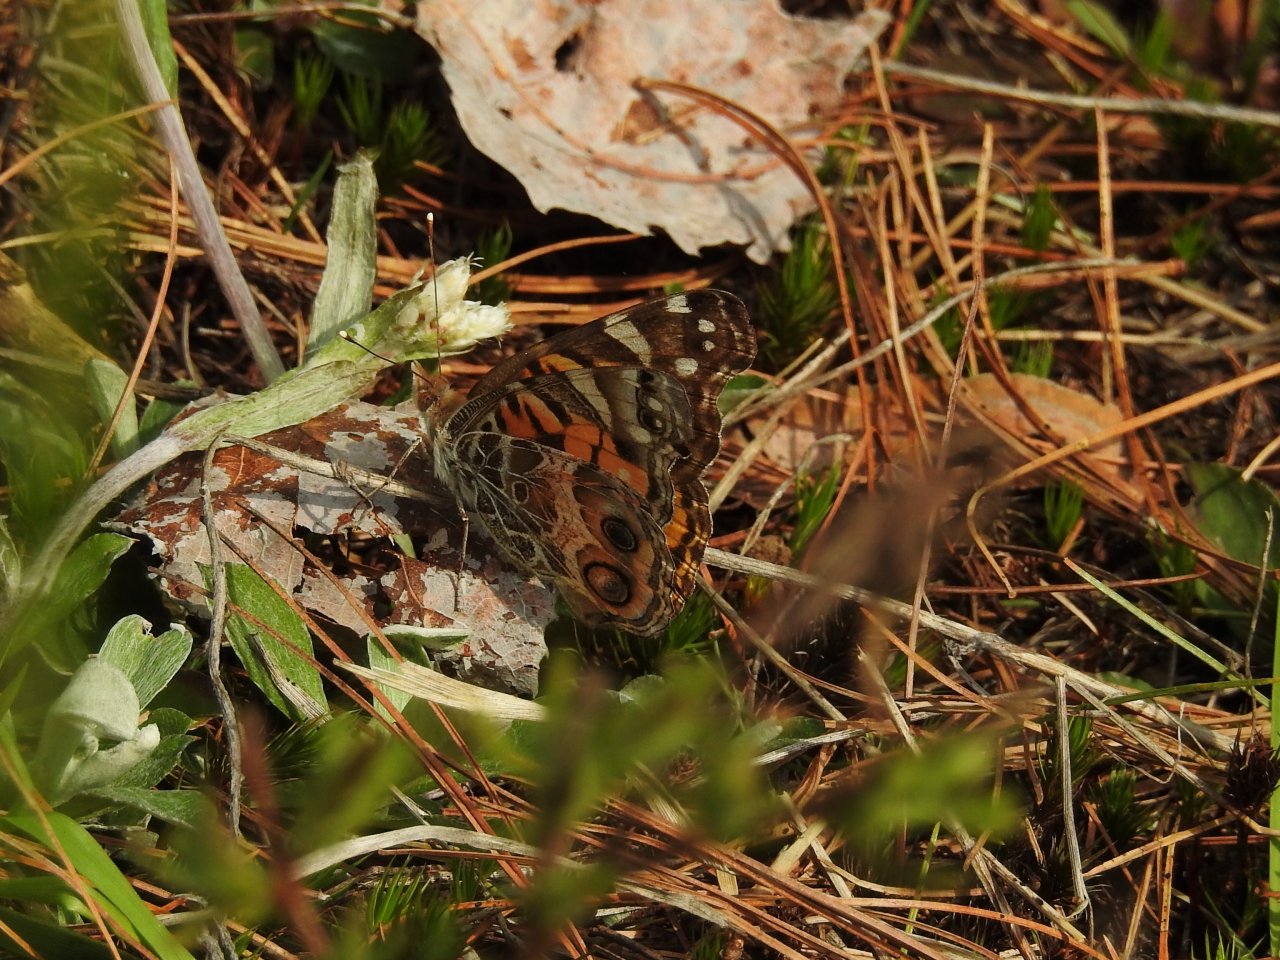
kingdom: Animalia
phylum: Arthropoda
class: Insecta
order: Lepidoptera
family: Nymphalidae
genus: Vanessa
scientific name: Vanessa virginiensis
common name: American Lady
